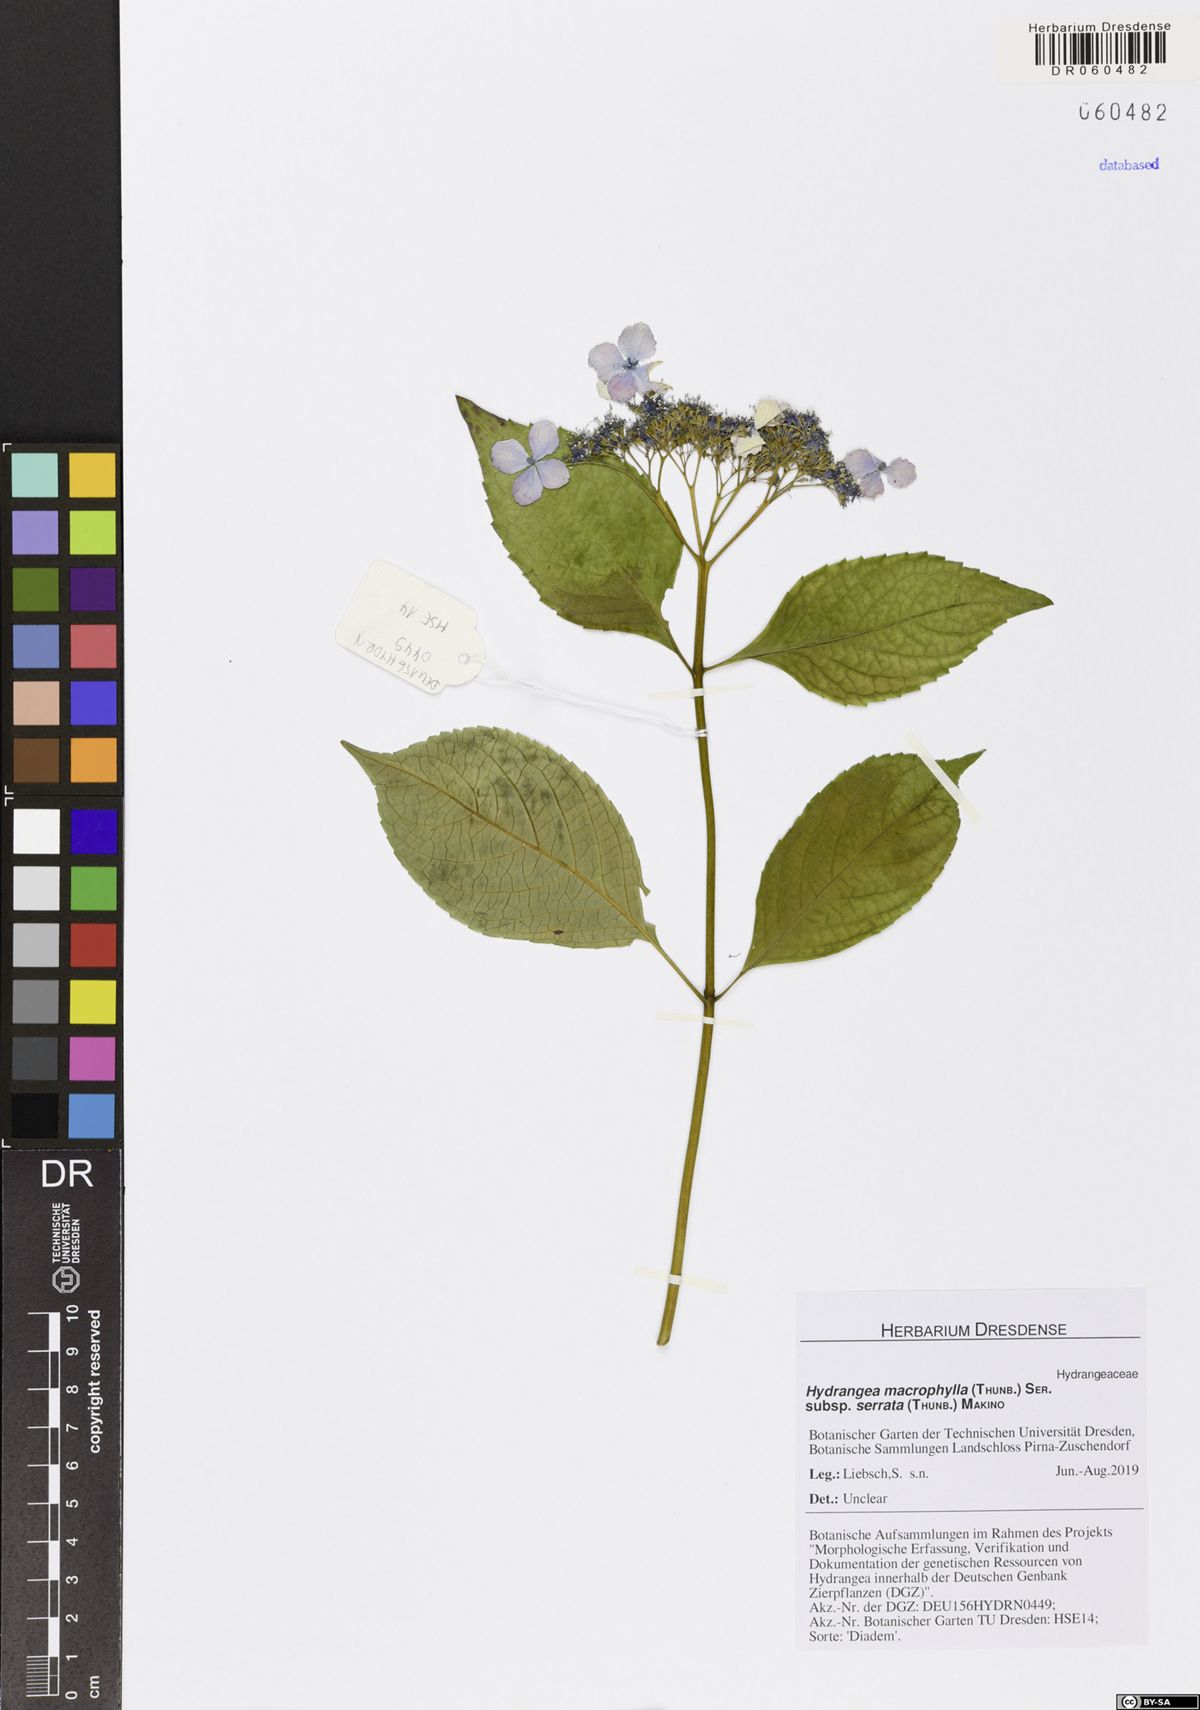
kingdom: Plantae
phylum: Tracheophyta
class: Magnoliopsida
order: Cornales
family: Hydrangeaceae
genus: Hydrangea
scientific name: Hydrangea serrata
